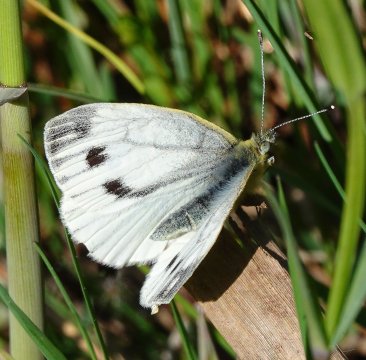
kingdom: Animalia
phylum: Arthropoda
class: Insecta
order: Lepidoptera
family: Pieridae
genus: Pieris
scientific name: Pieris napi
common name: Green-veined White
